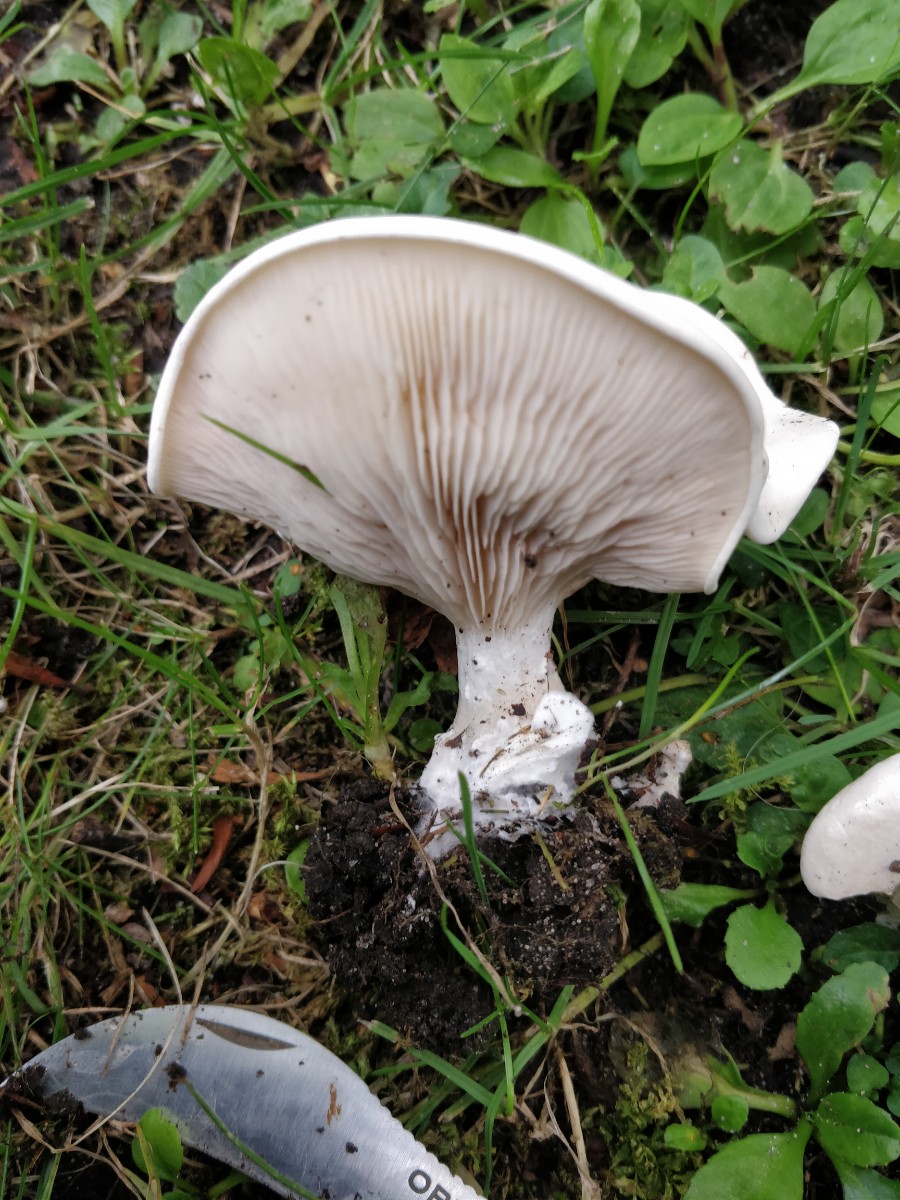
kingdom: Fungi
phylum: Basidiomycota
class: Agaricomycetes
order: Agaricales
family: Entolomataceae
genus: Clitopilus
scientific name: Clitopilus prunulus
